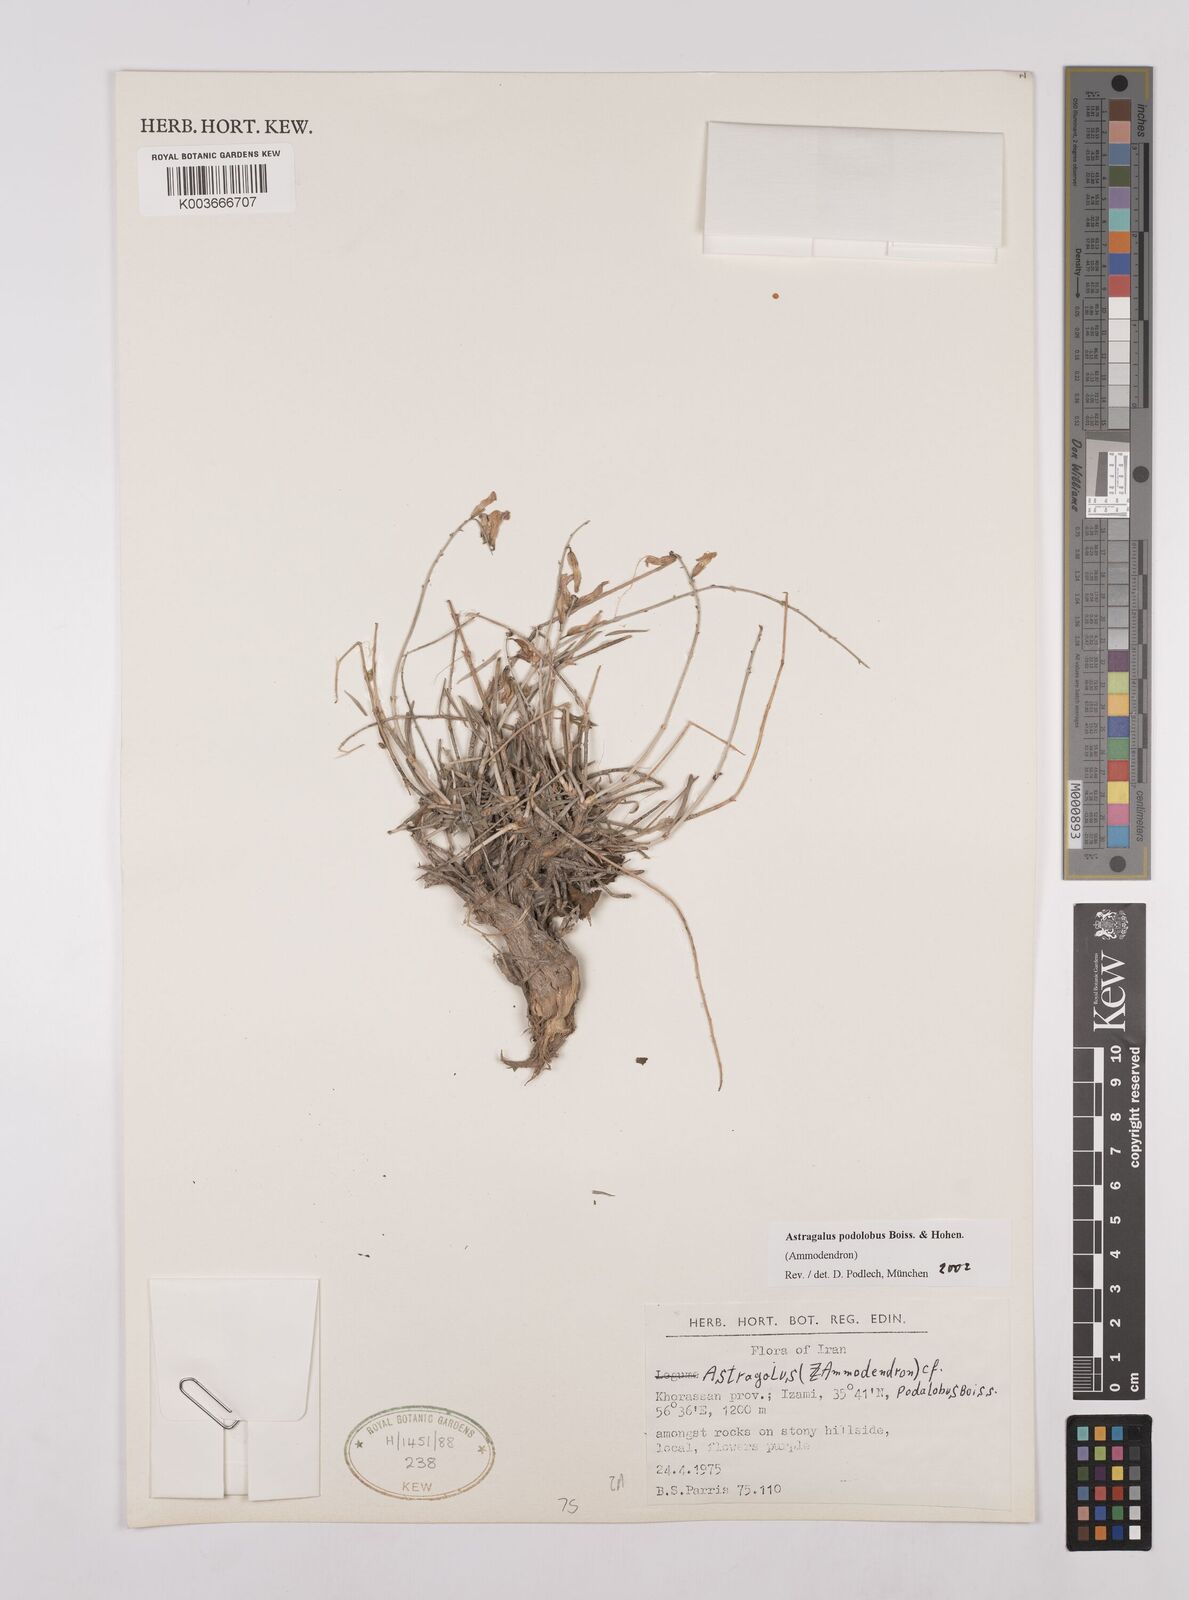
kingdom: Plantae
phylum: Tracheophyta
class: Magnoliopsida
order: Fabales
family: Fabaceae
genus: Astragalus
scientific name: Astragalus podolobus
